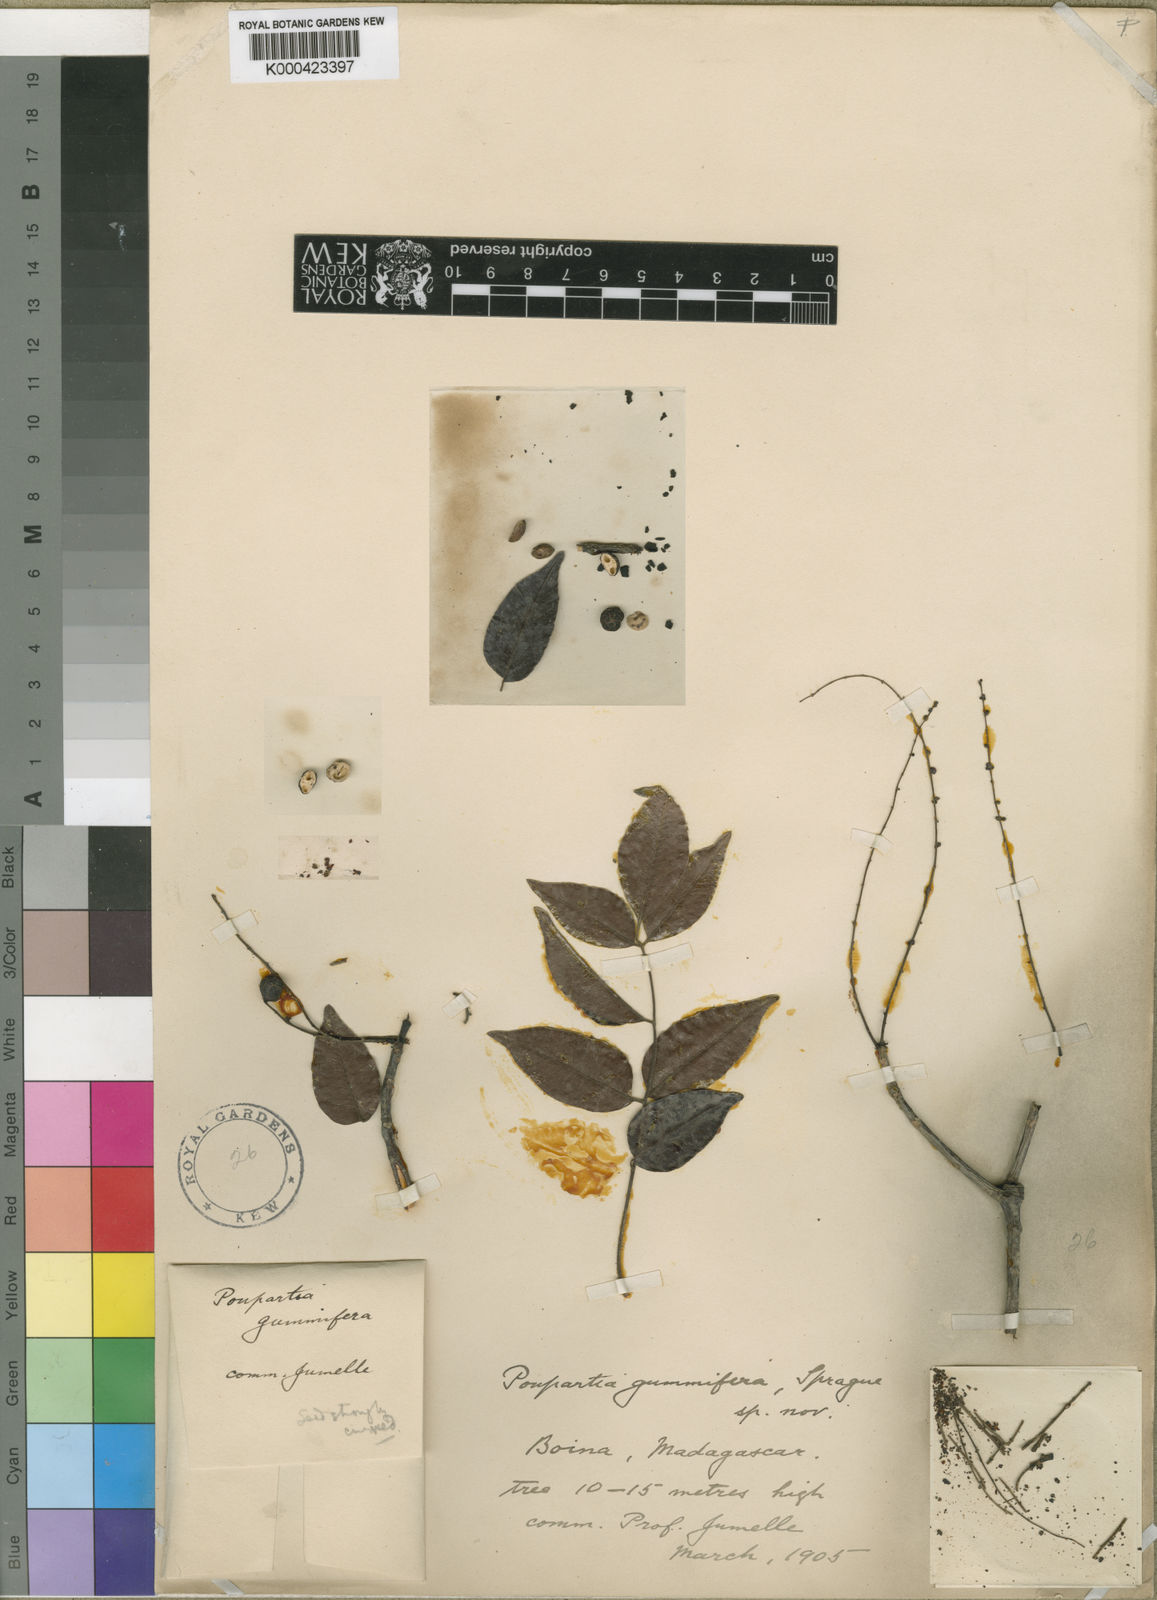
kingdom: Plantae
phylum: Tracheophyta
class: Magnoliopsida
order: Sapindales
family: Anacardiaceae
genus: Operculicarya
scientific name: Operculicarya gummifera
